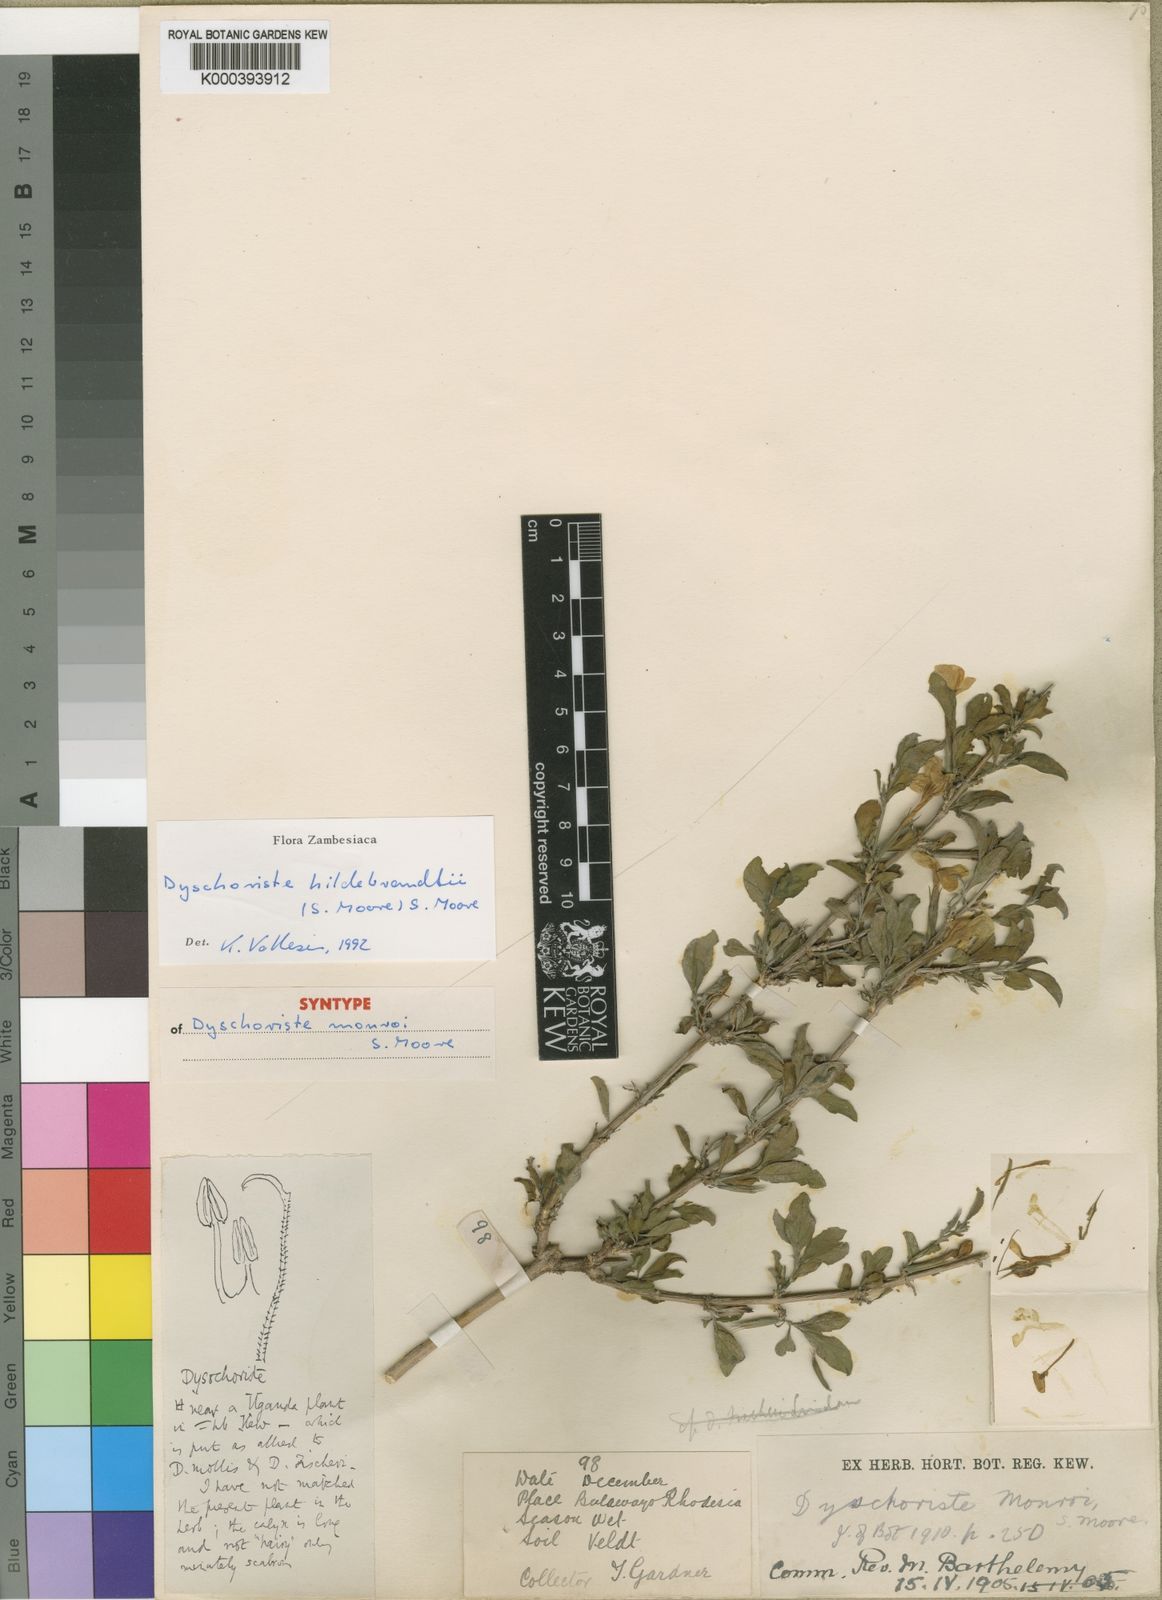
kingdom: Plantae
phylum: Tracheophyta
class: Magnoliopsida
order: Lamiales
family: Acanthaceae
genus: Dyschoriste
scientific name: Dyschoriste
